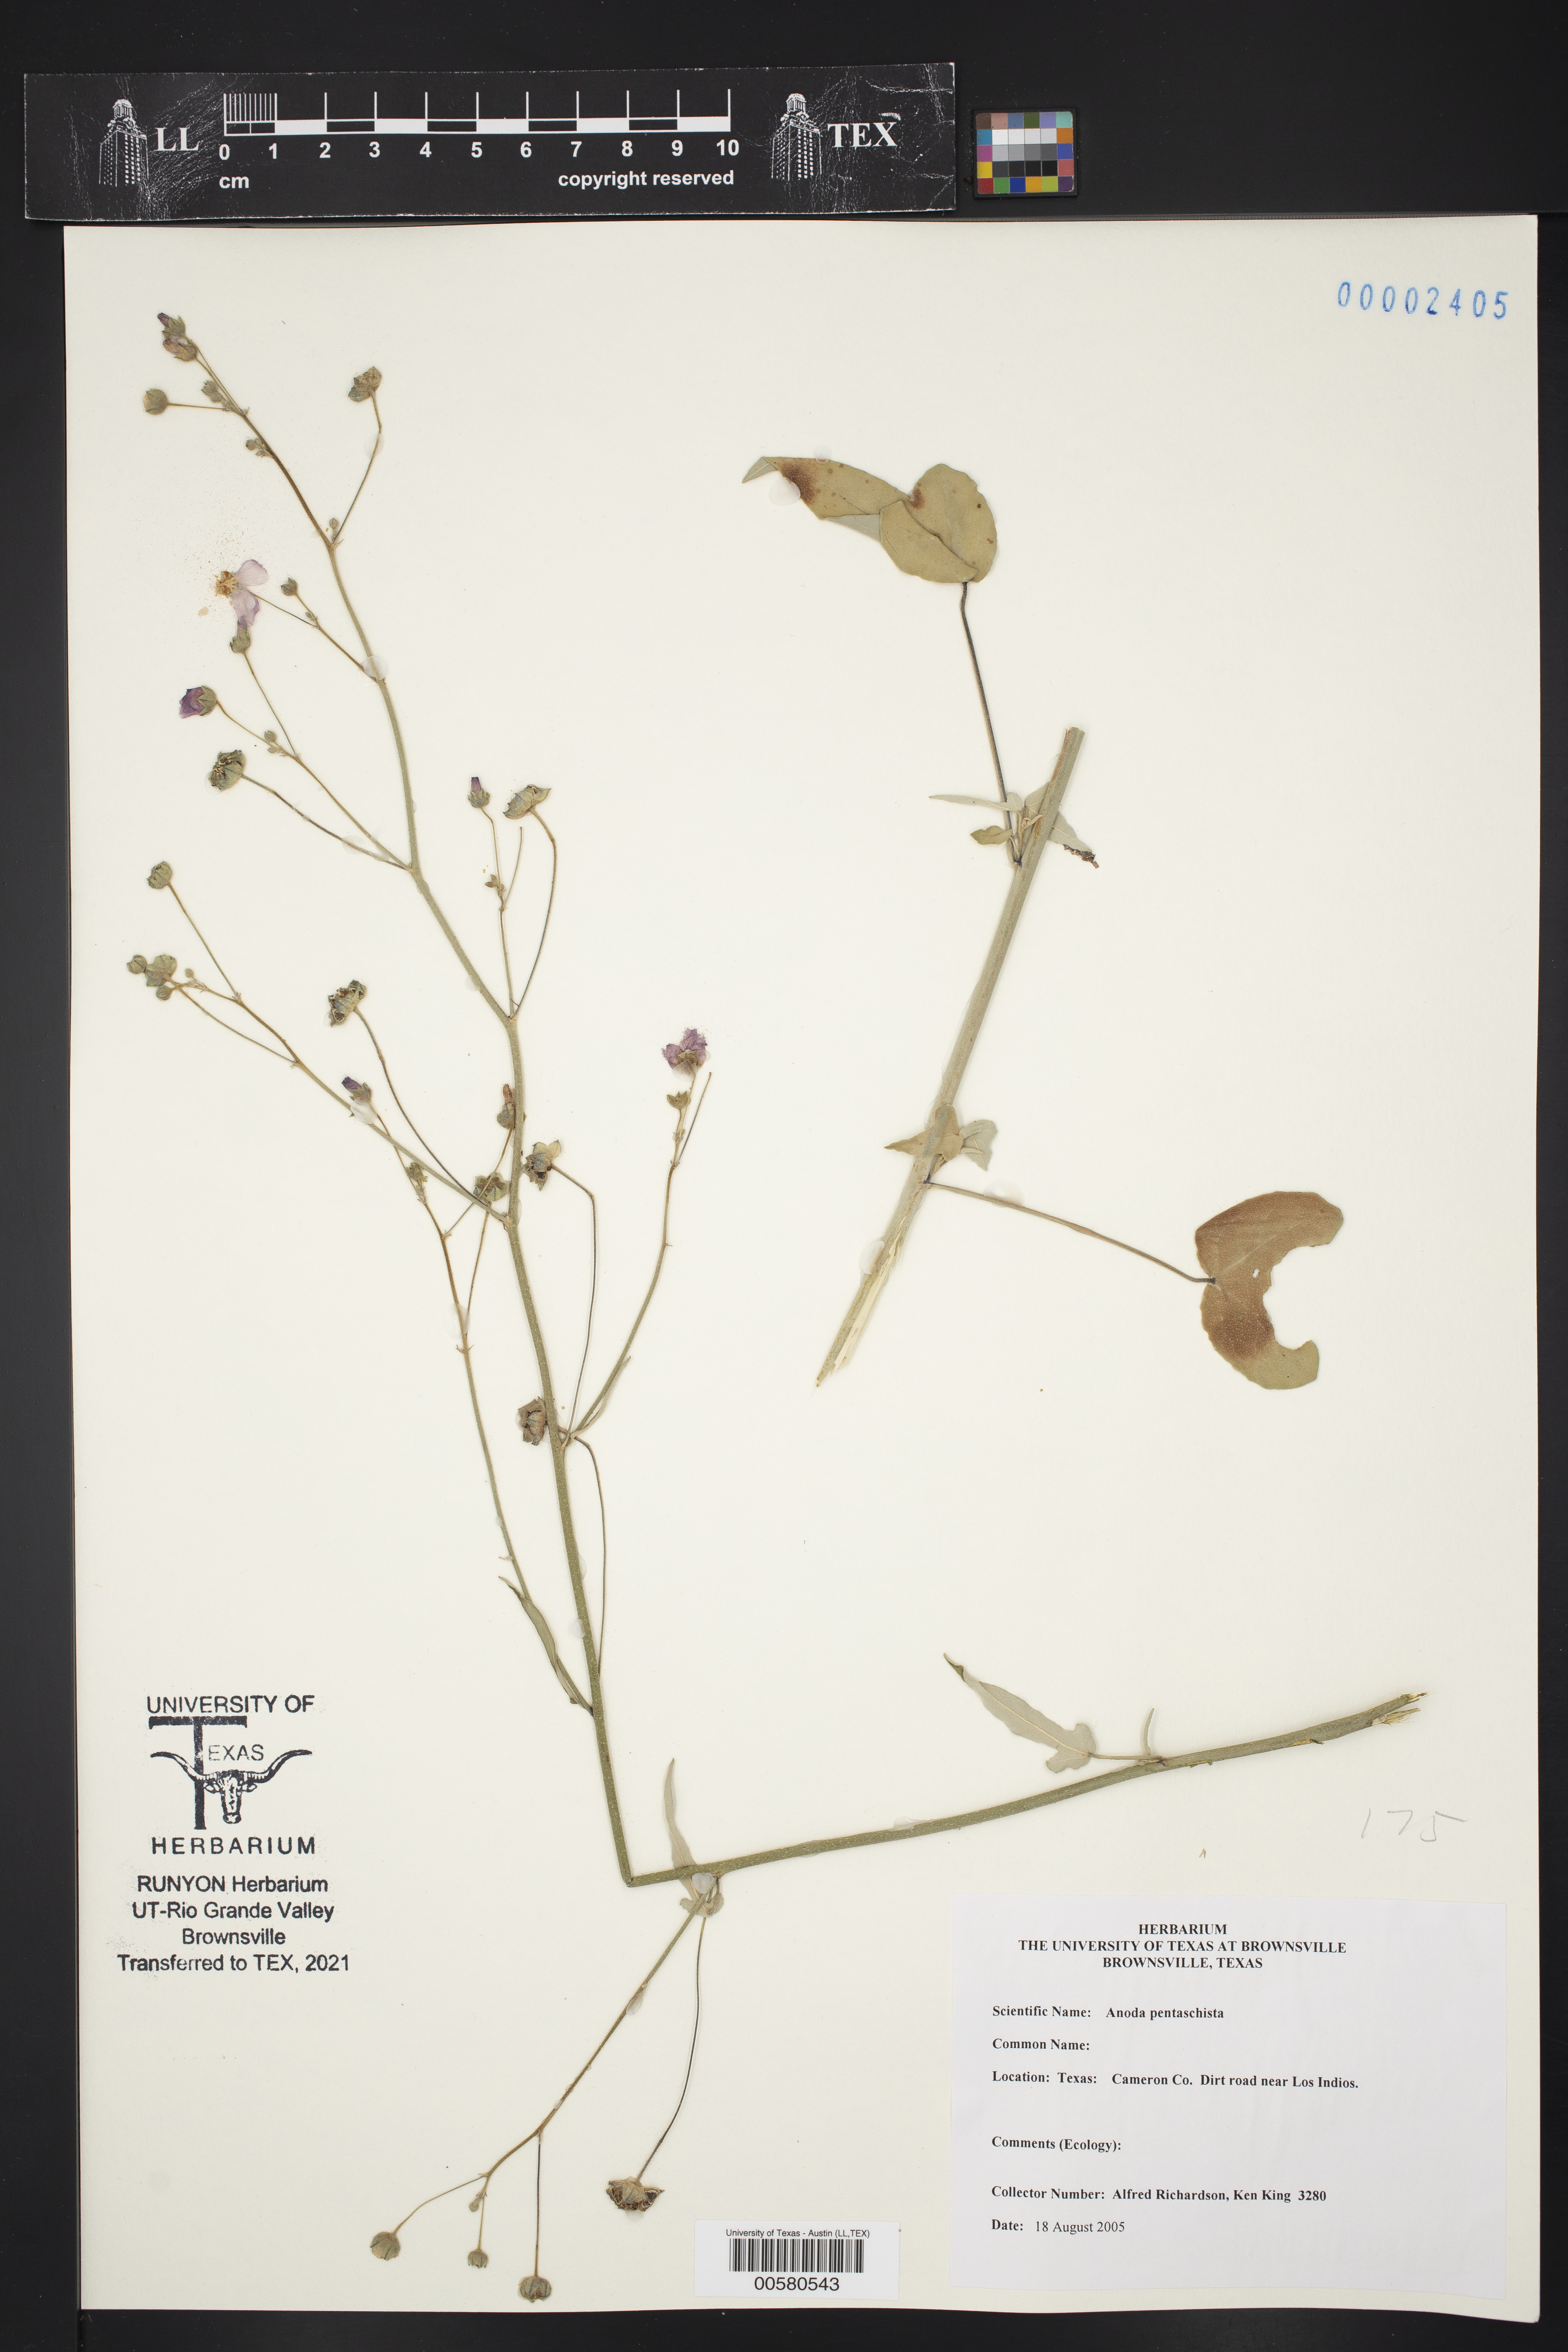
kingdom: Plantae
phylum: Tracheophyta
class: Magnoliopsida
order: Malvales
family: Malvaceae
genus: Anoda
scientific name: Anoda pentaschista
